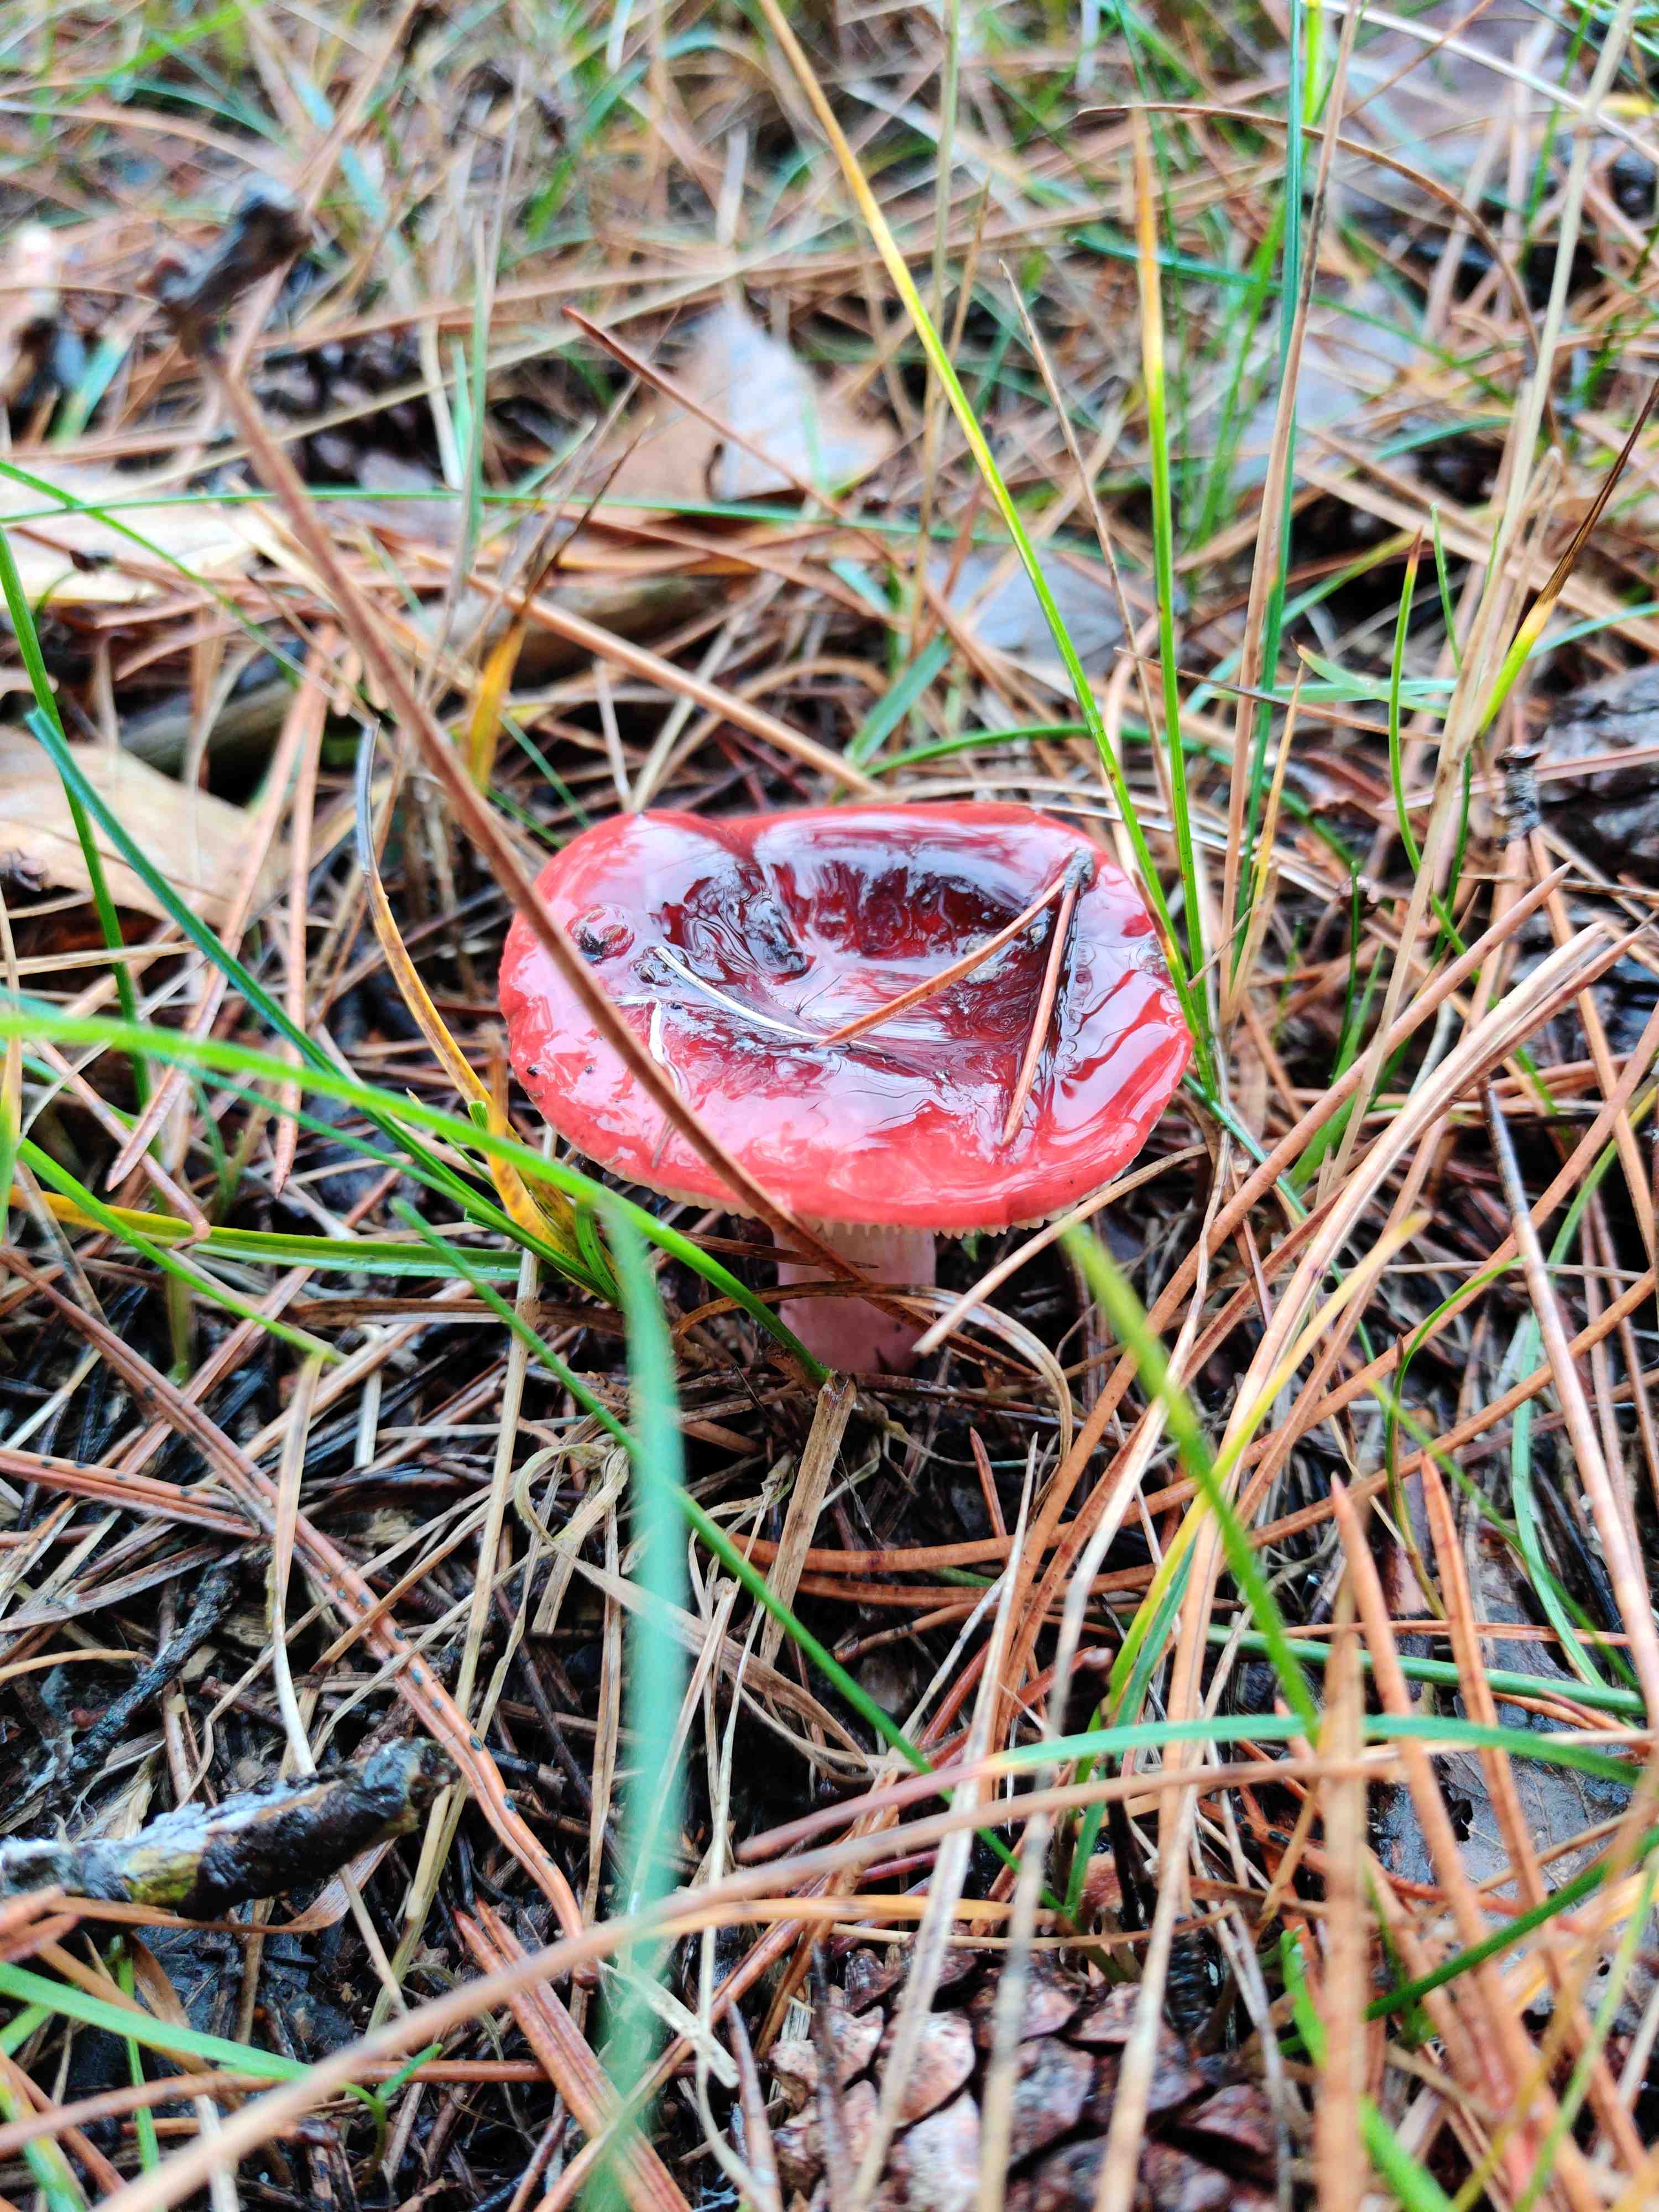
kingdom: Fungi
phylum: Basidiomycota
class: Agaricomycetes
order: Russulales
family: Russulaceae
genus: Russula
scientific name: Russula
